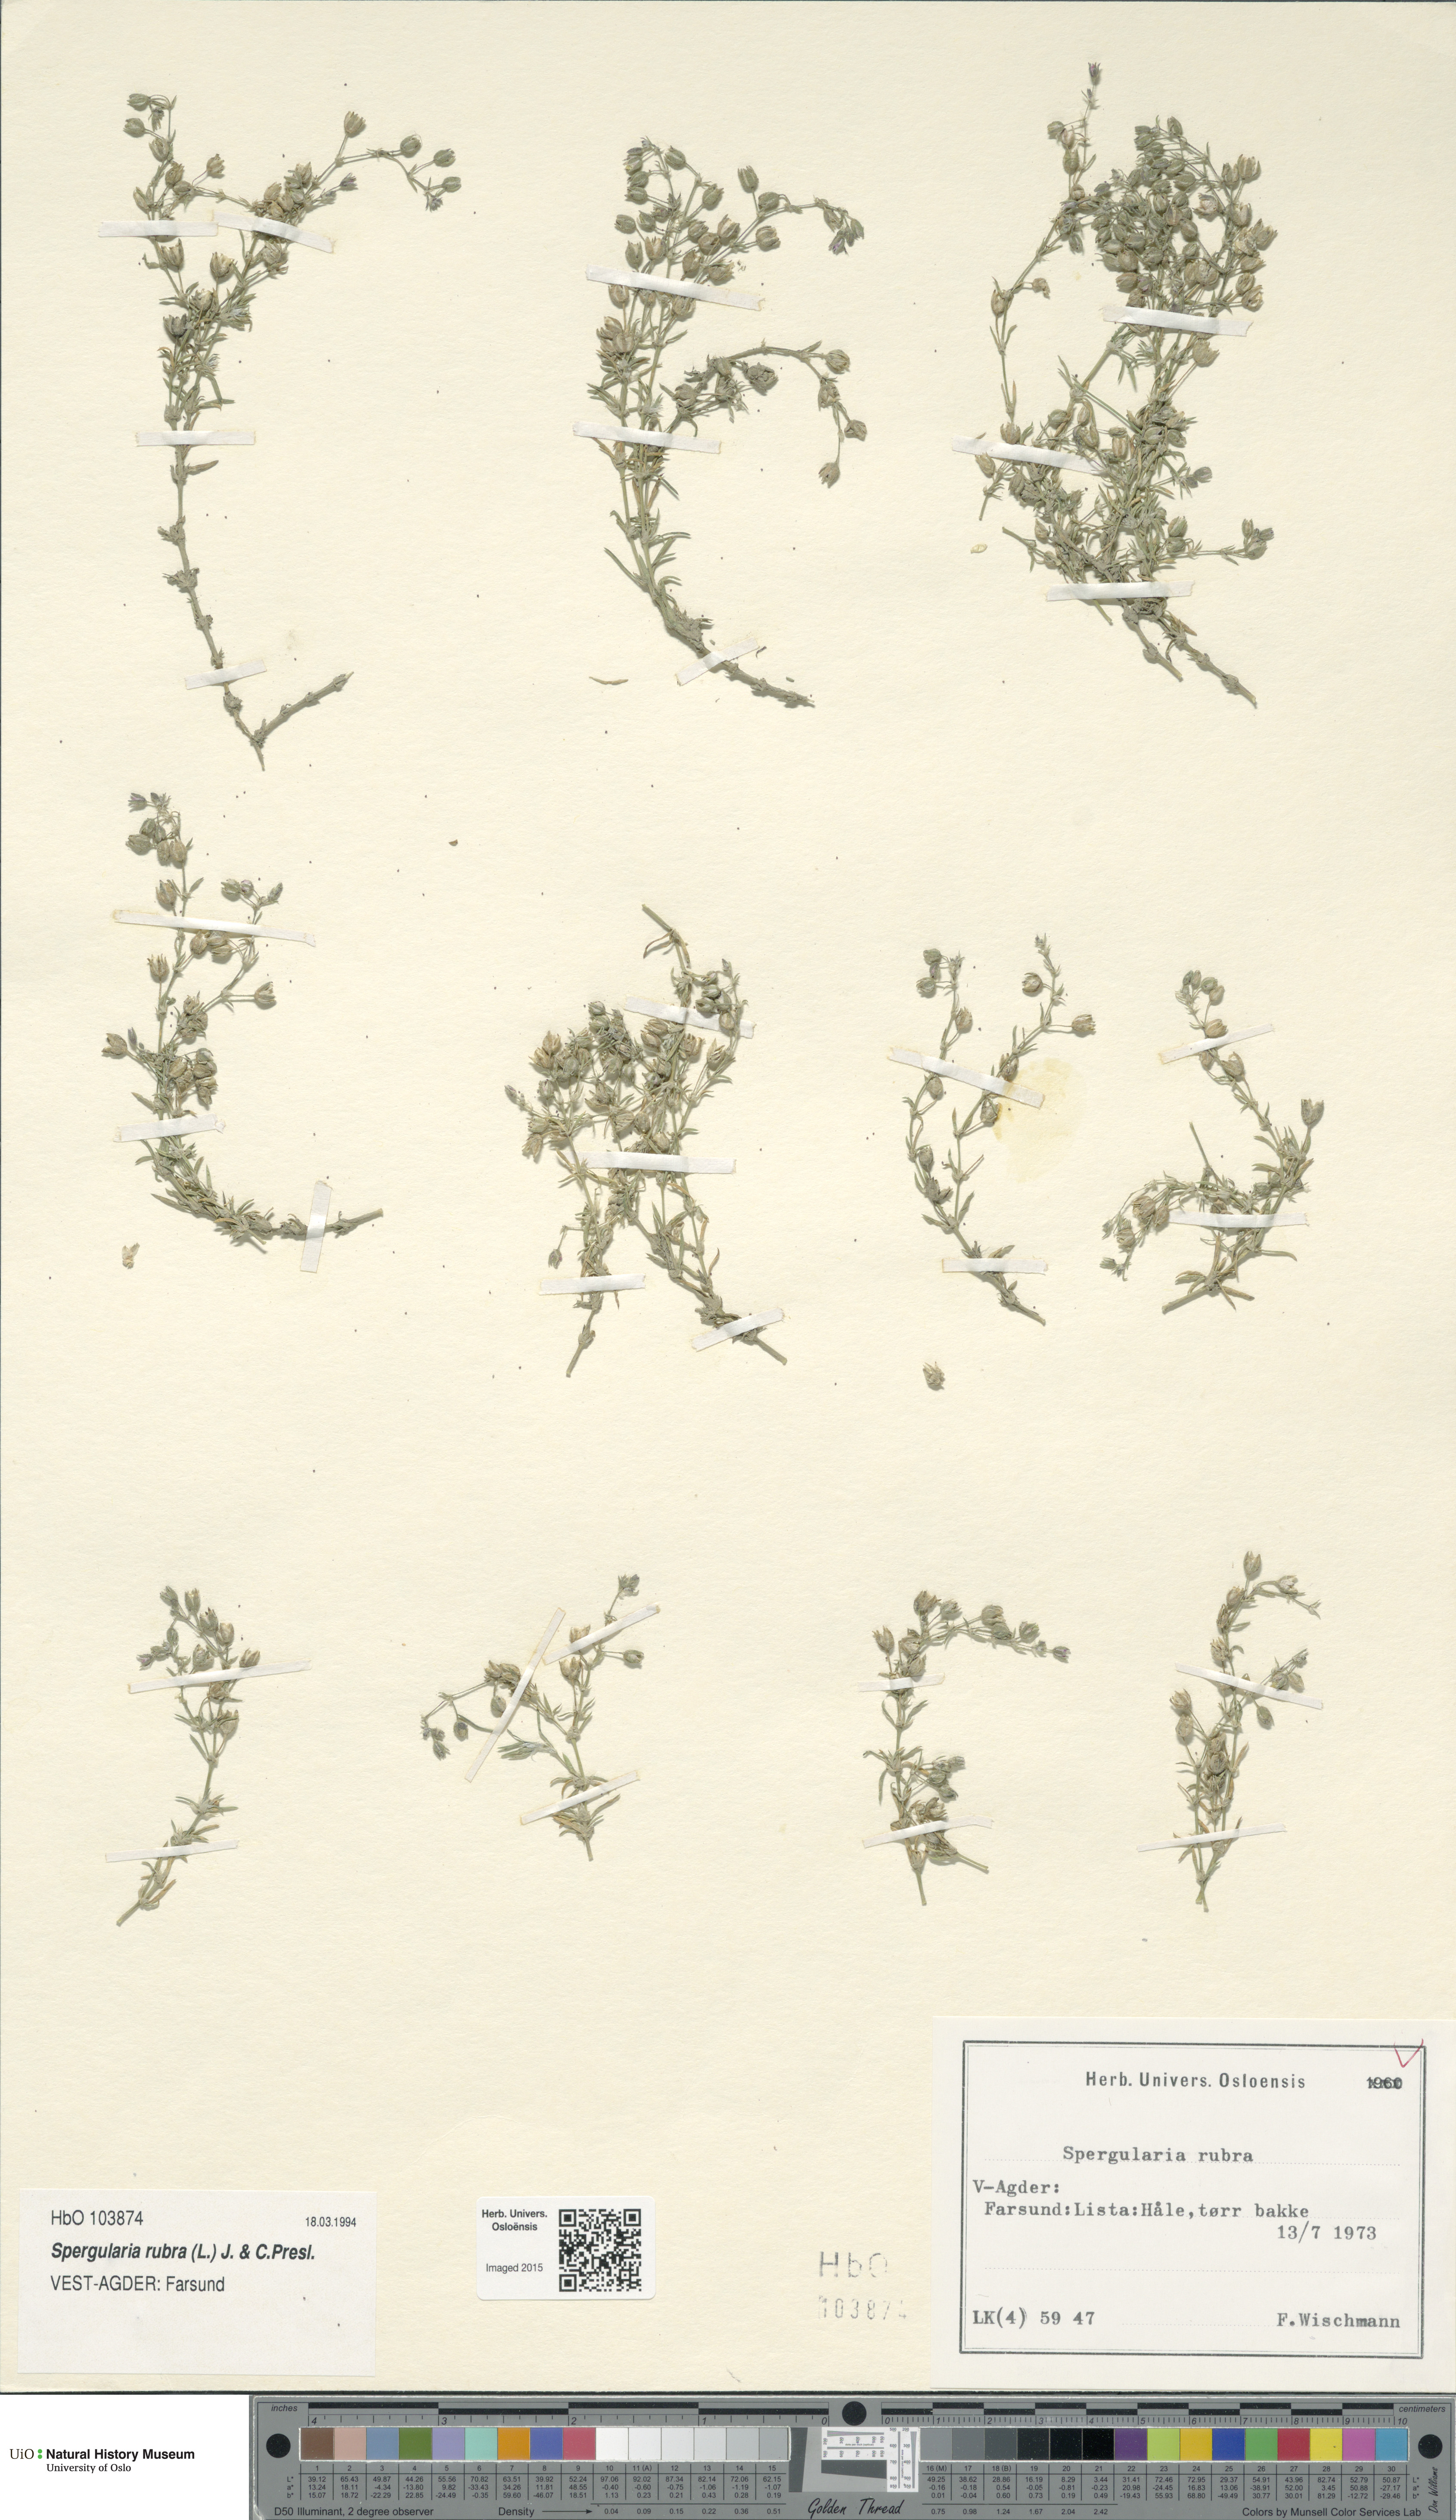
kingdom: Plantae
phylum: Tracheophyta
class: Magnoliopsida
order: Caryophyllales
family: Caryophyllaceae
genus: Spergularia
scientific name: Spergularia rubra
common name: Red sand-spurrey
